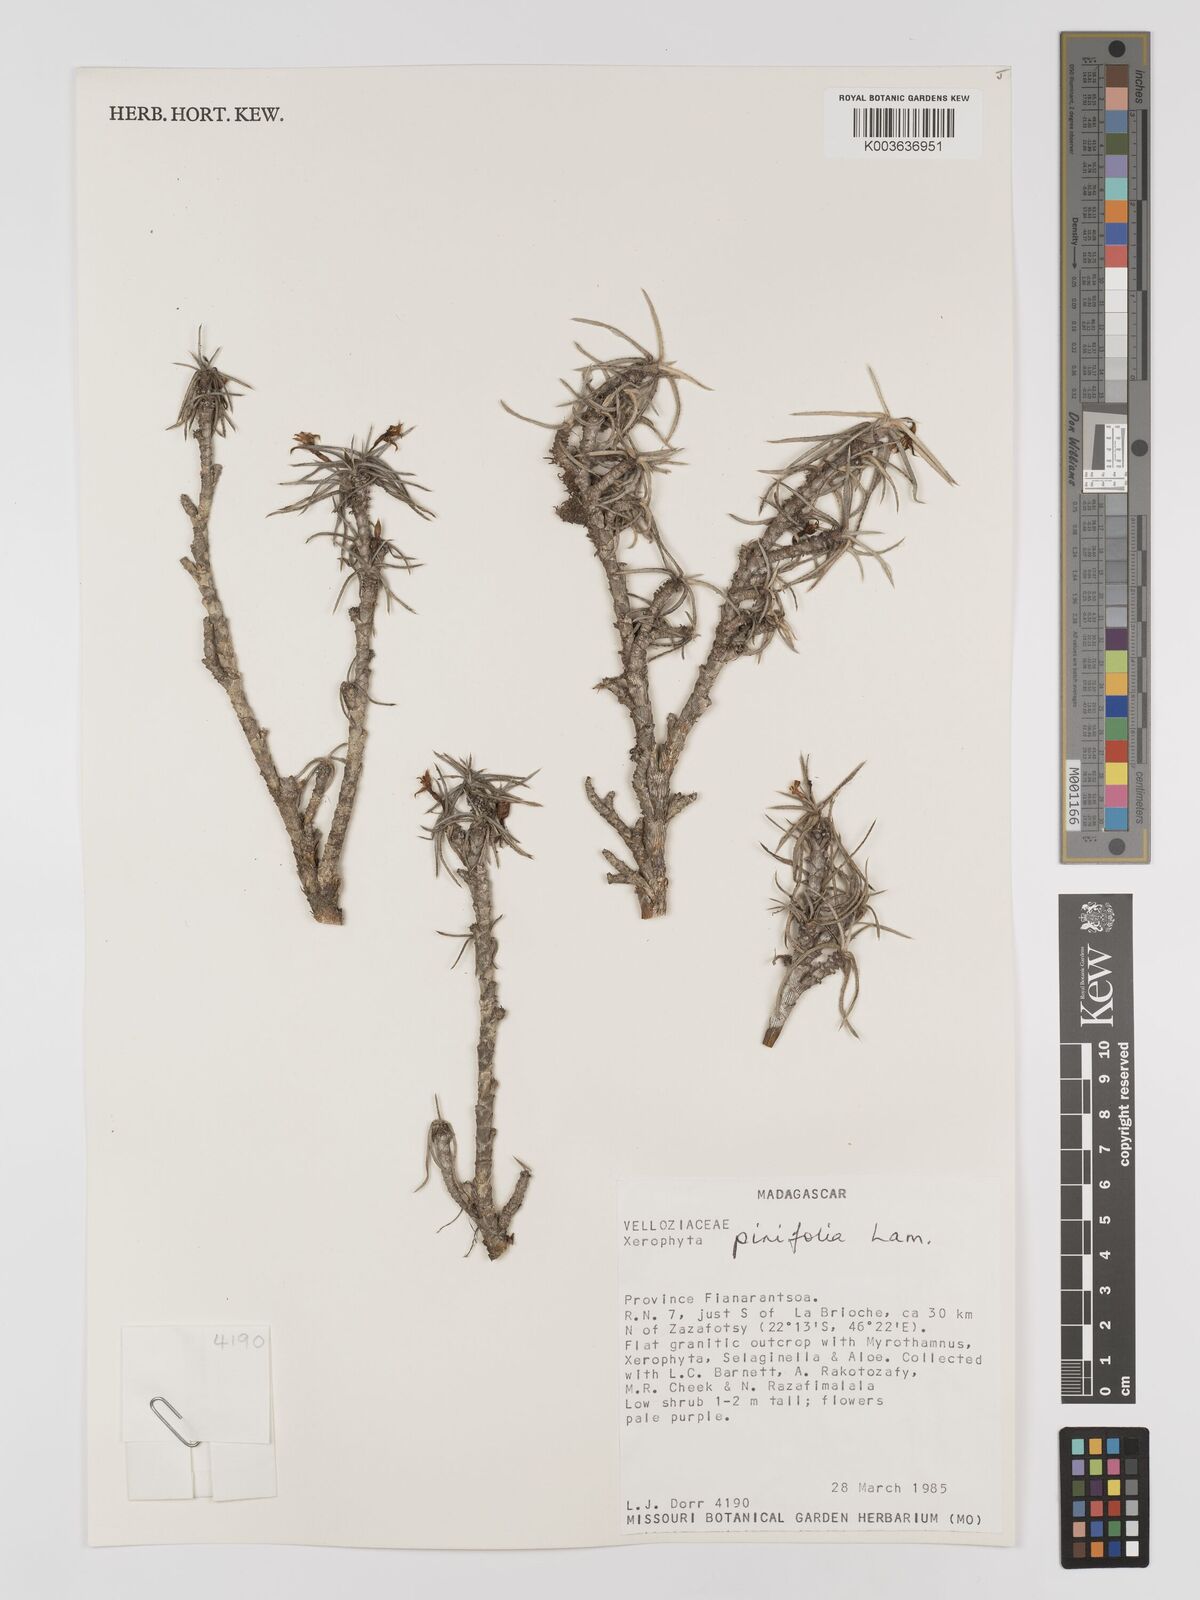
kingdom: Plantae
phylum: Tracheophyta
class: Liliopsida
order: Pandanales
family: Velloziaceae
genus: Xerophyta
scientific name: Xerophyta pinifolia
